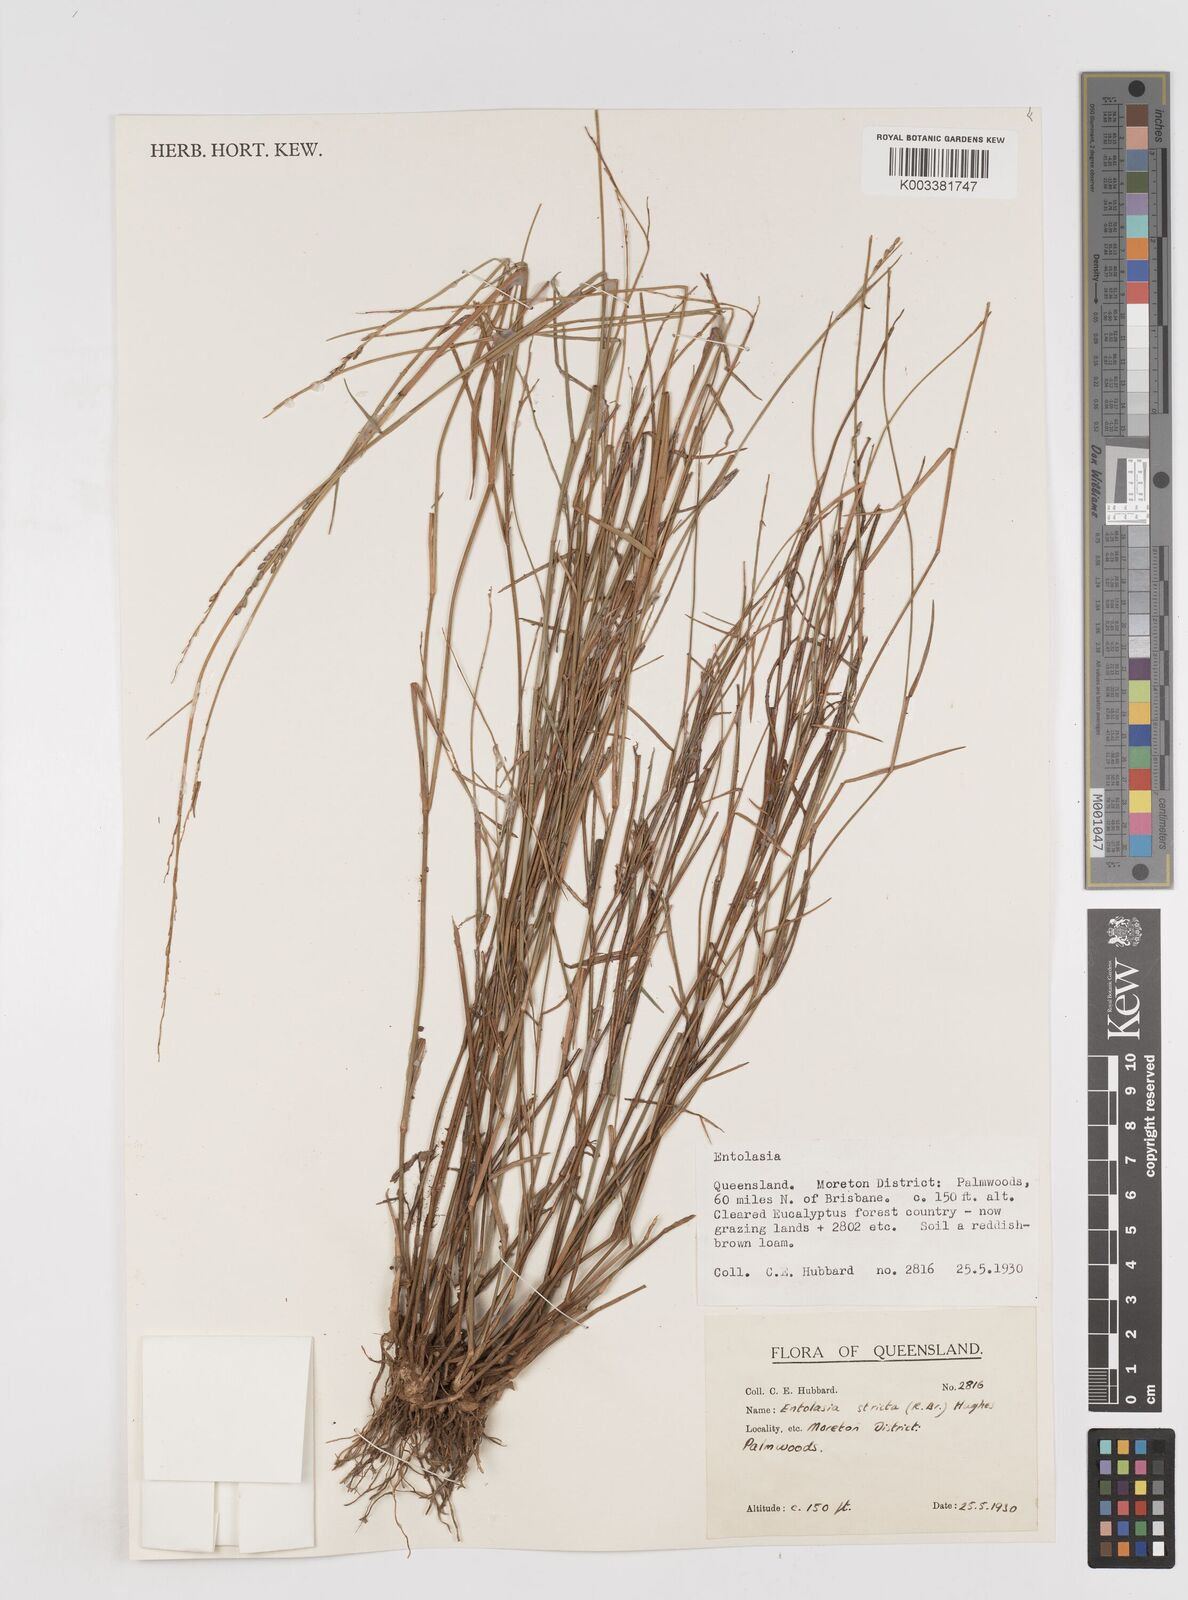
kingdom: Plantae
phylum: Tracheophyta
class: Liliopsida
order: Poales
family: Poaceae
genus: Entolasia
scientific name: Entolasia stricta
